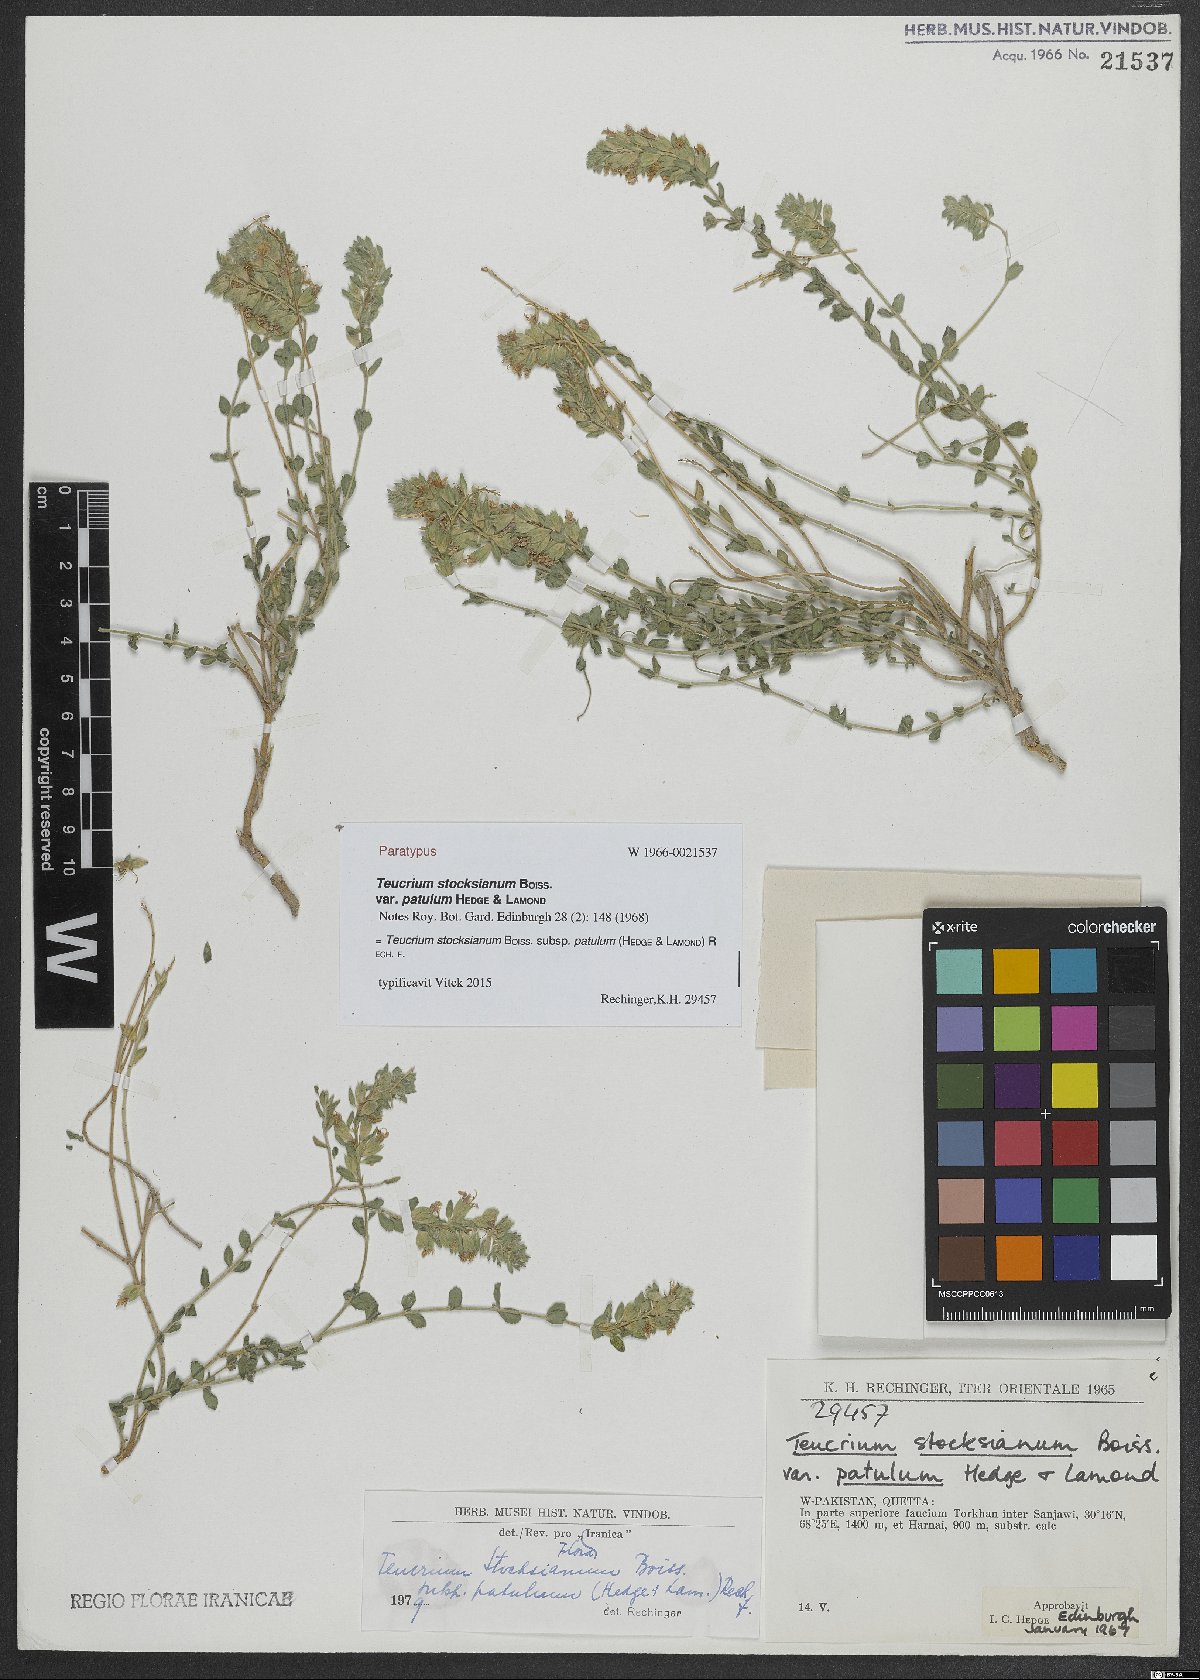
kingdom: Plantae
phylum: Tracheophyta
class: Magnoliopsida
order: Lamiales
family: Lamiaceae
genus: Teucrium
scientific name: Teucrium stocksianum
